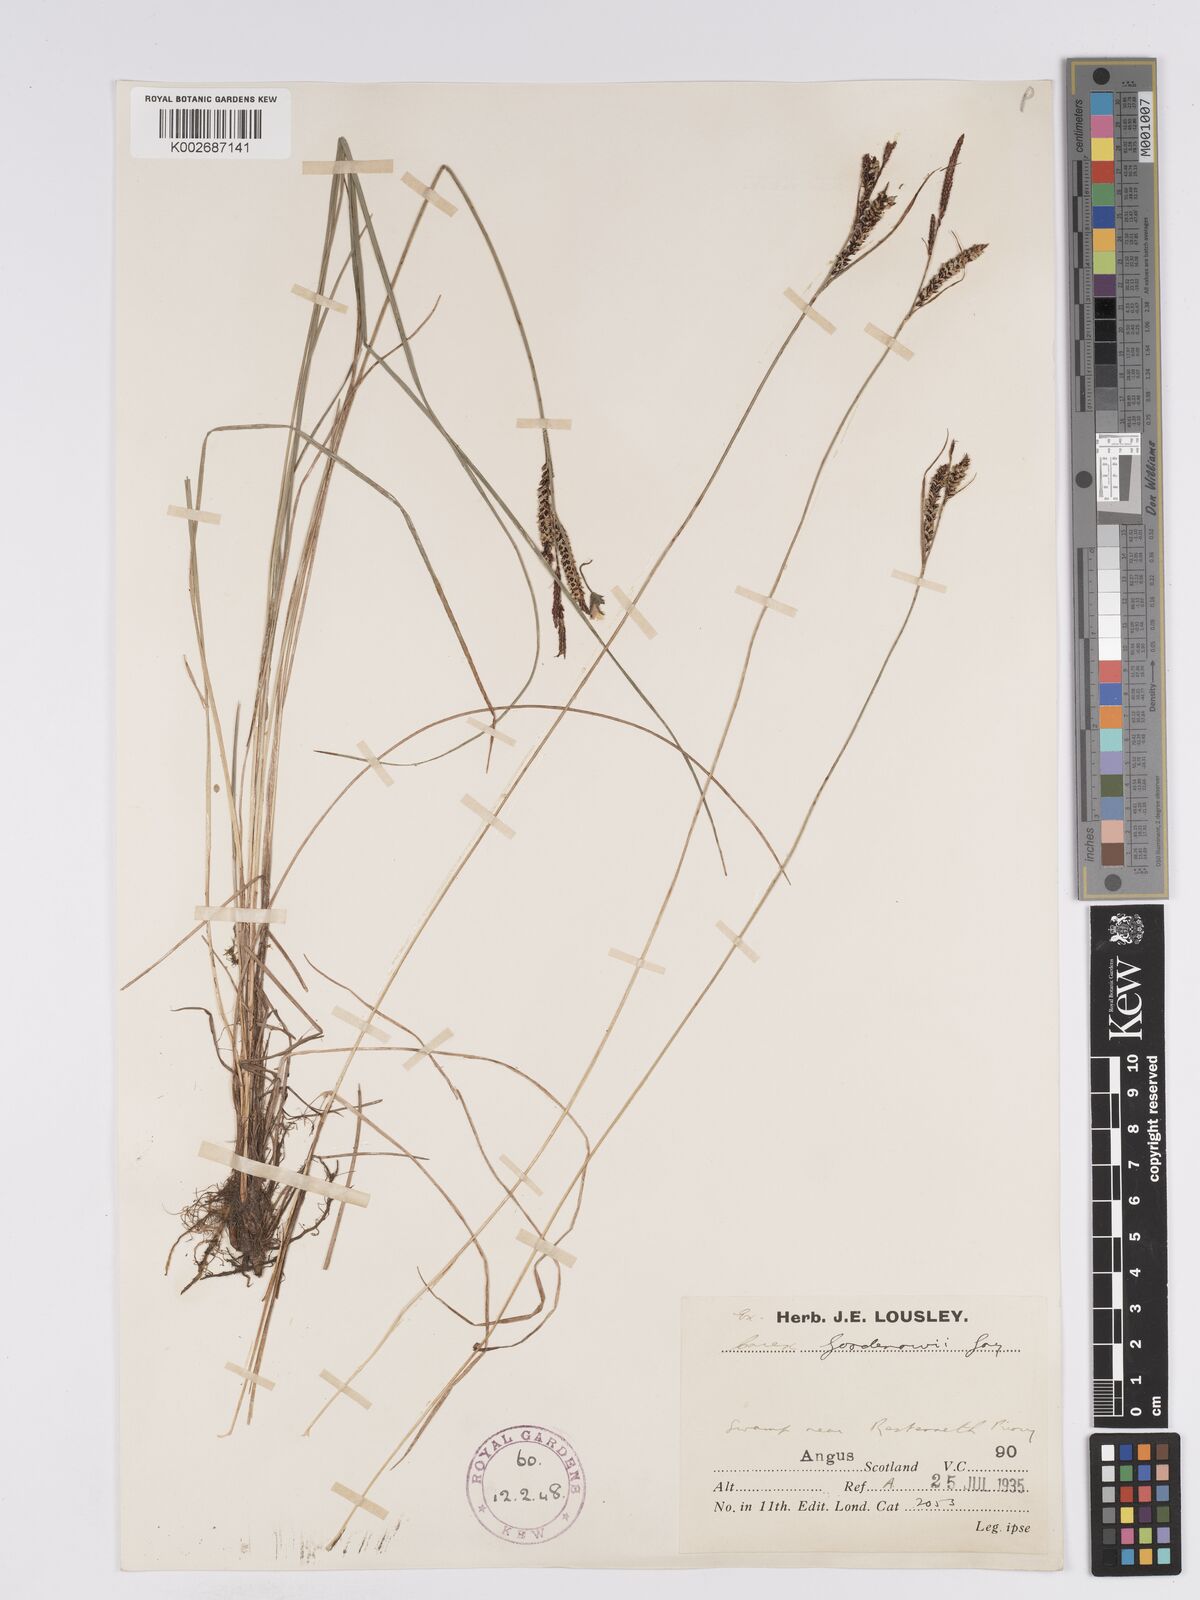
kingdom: Plantae
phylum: Tracheophyta
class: Liliopsida
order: Poales
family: Cyperaceae
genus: Carex
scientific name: Carex nigra
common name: Common sedge
